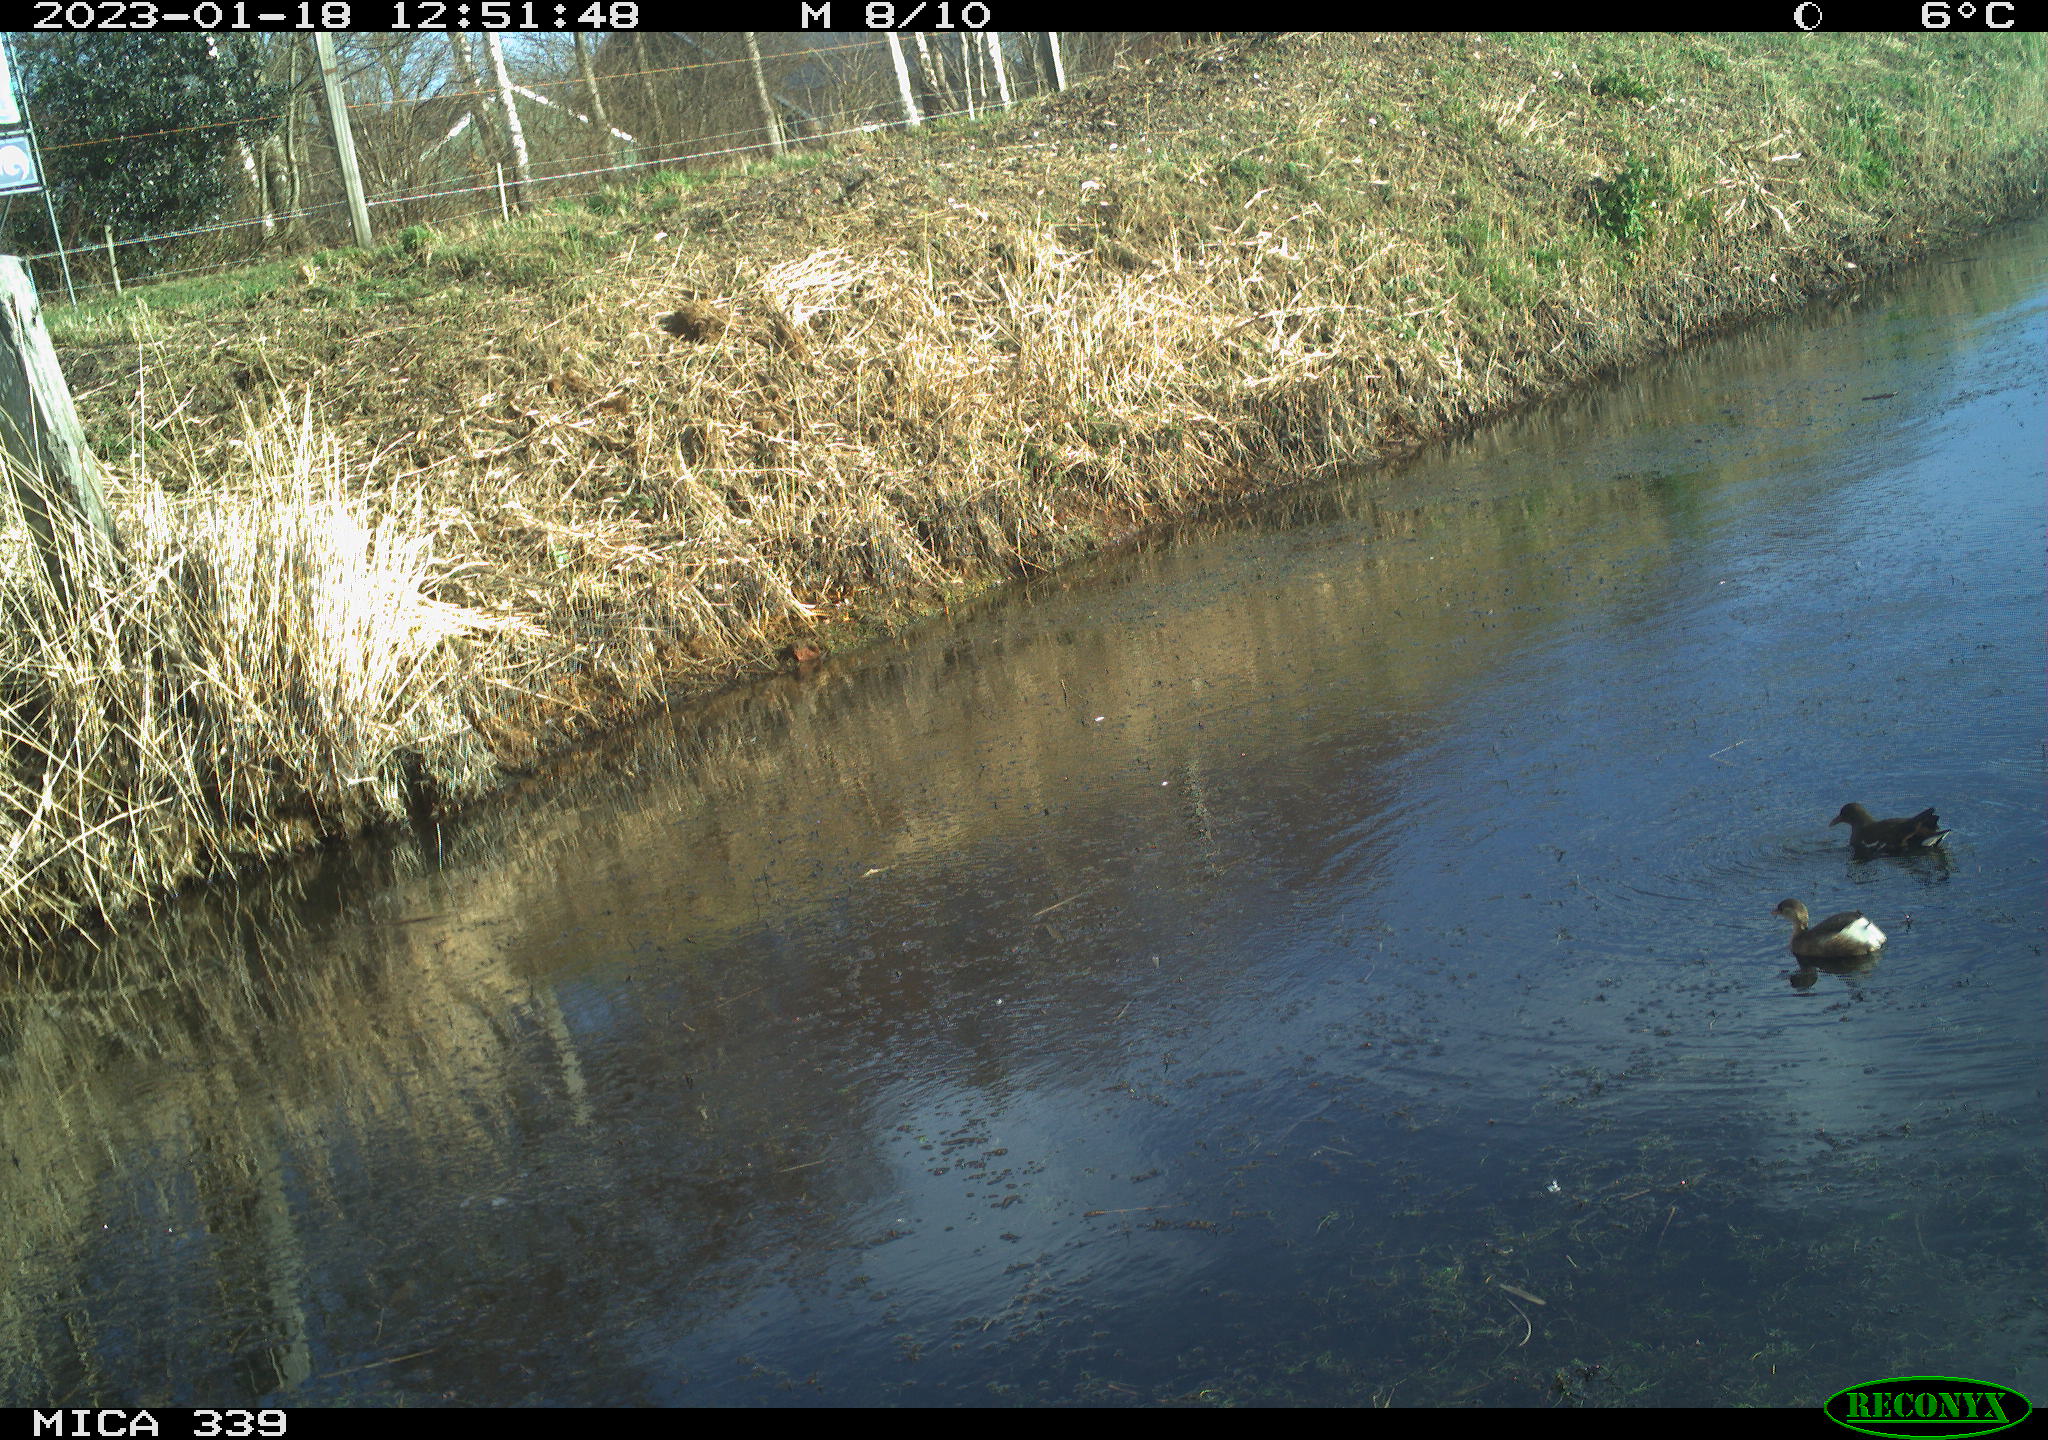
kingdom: Animalia
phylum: Chordata
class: Aves
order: Gruiformes
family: Rallidae
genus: Gallinula
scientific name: Gallinula chloropus
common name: Common moorhen
